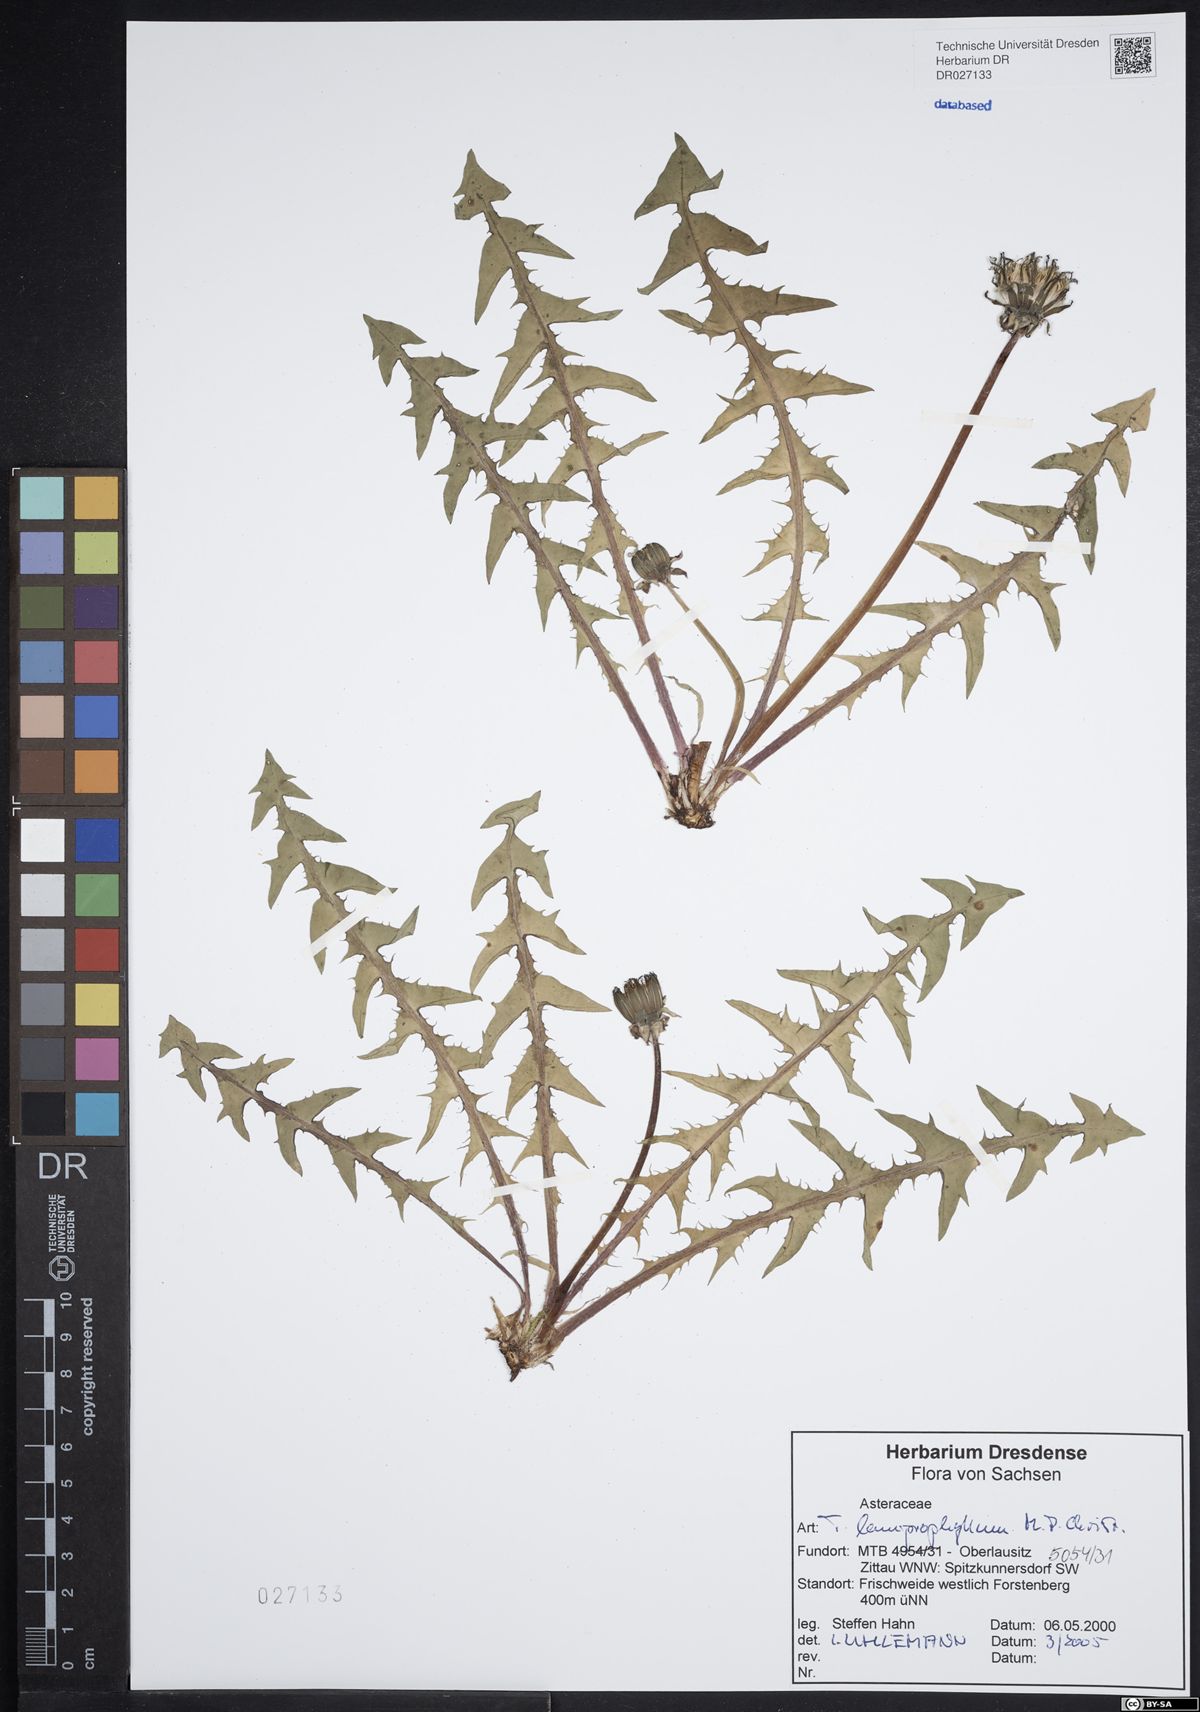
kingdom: Plantae
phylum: Tracheophyta
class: Magnoliopsida
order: Asterales
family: Asteraceae
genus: Taraxacum
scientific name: Taraxacum lamprophyllum
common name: Lustrous-leaved dandelion
